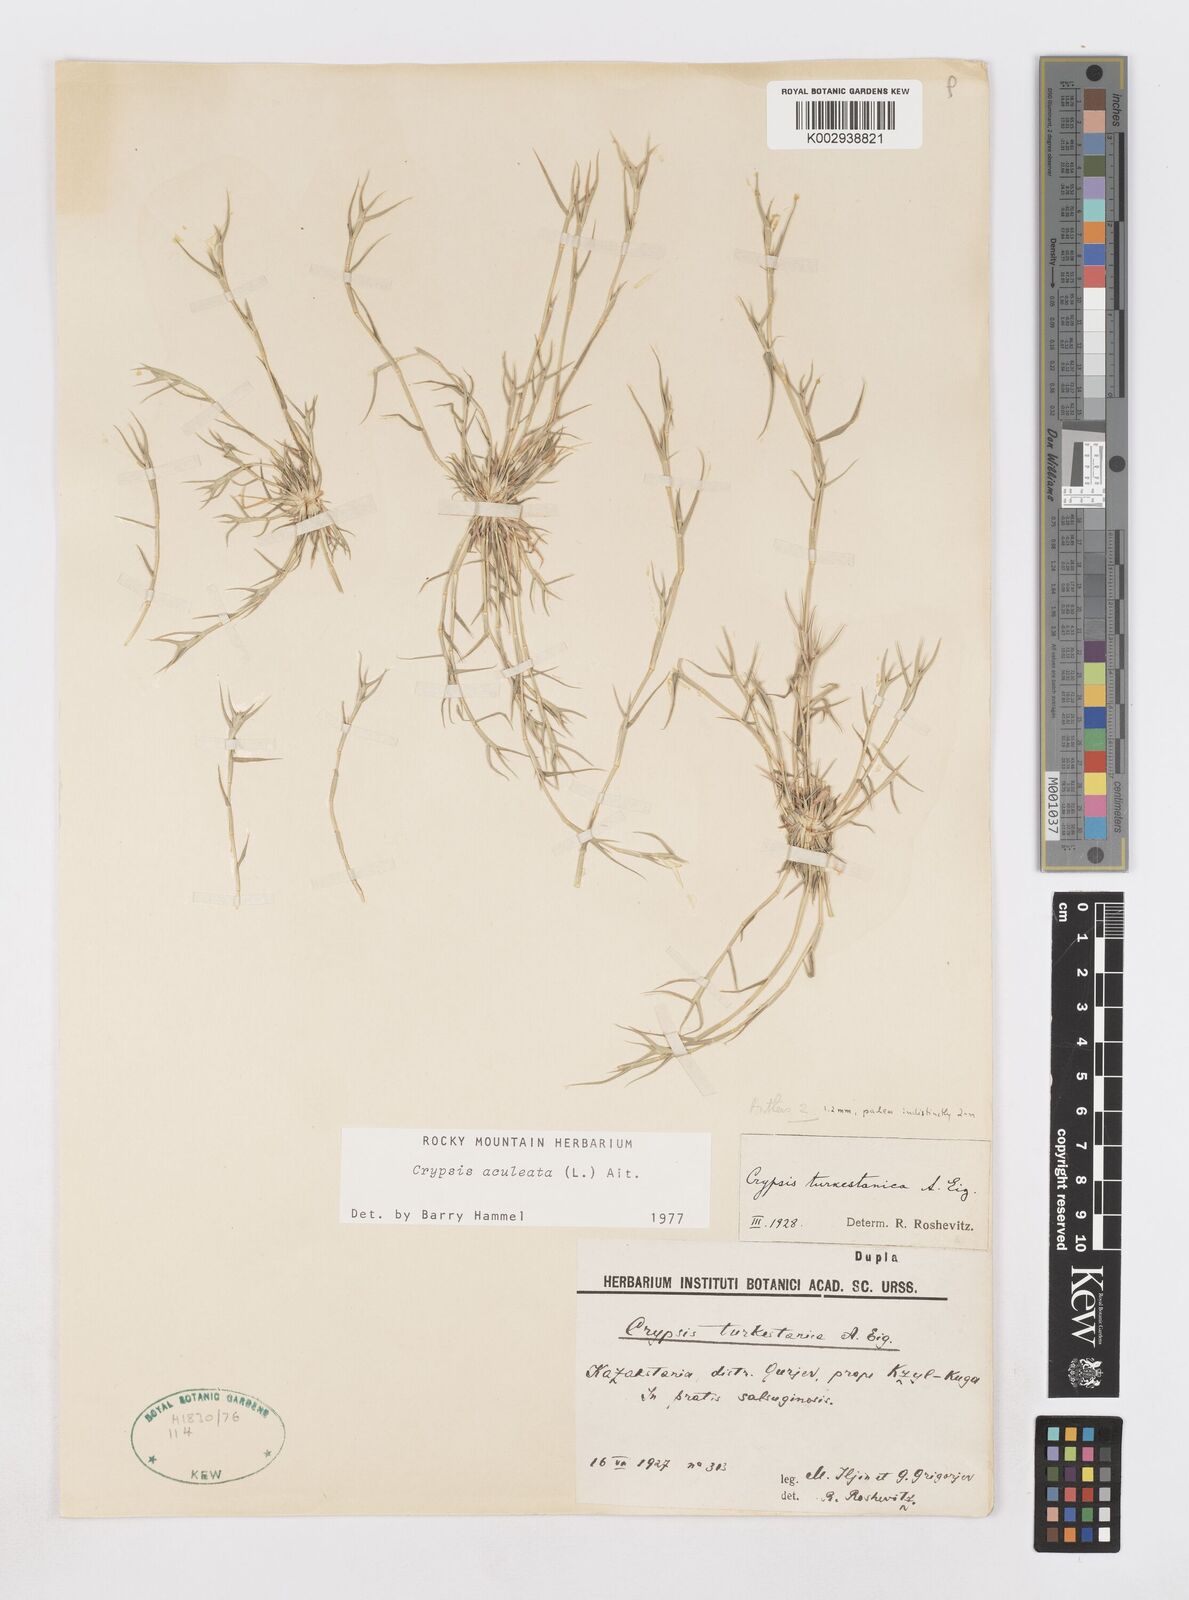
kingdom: Plantae
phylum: Tracheophyta
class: Liliopsida
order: Poales
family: Poaceae
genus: Sporobolus
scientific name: Sporobolus aculeatus
